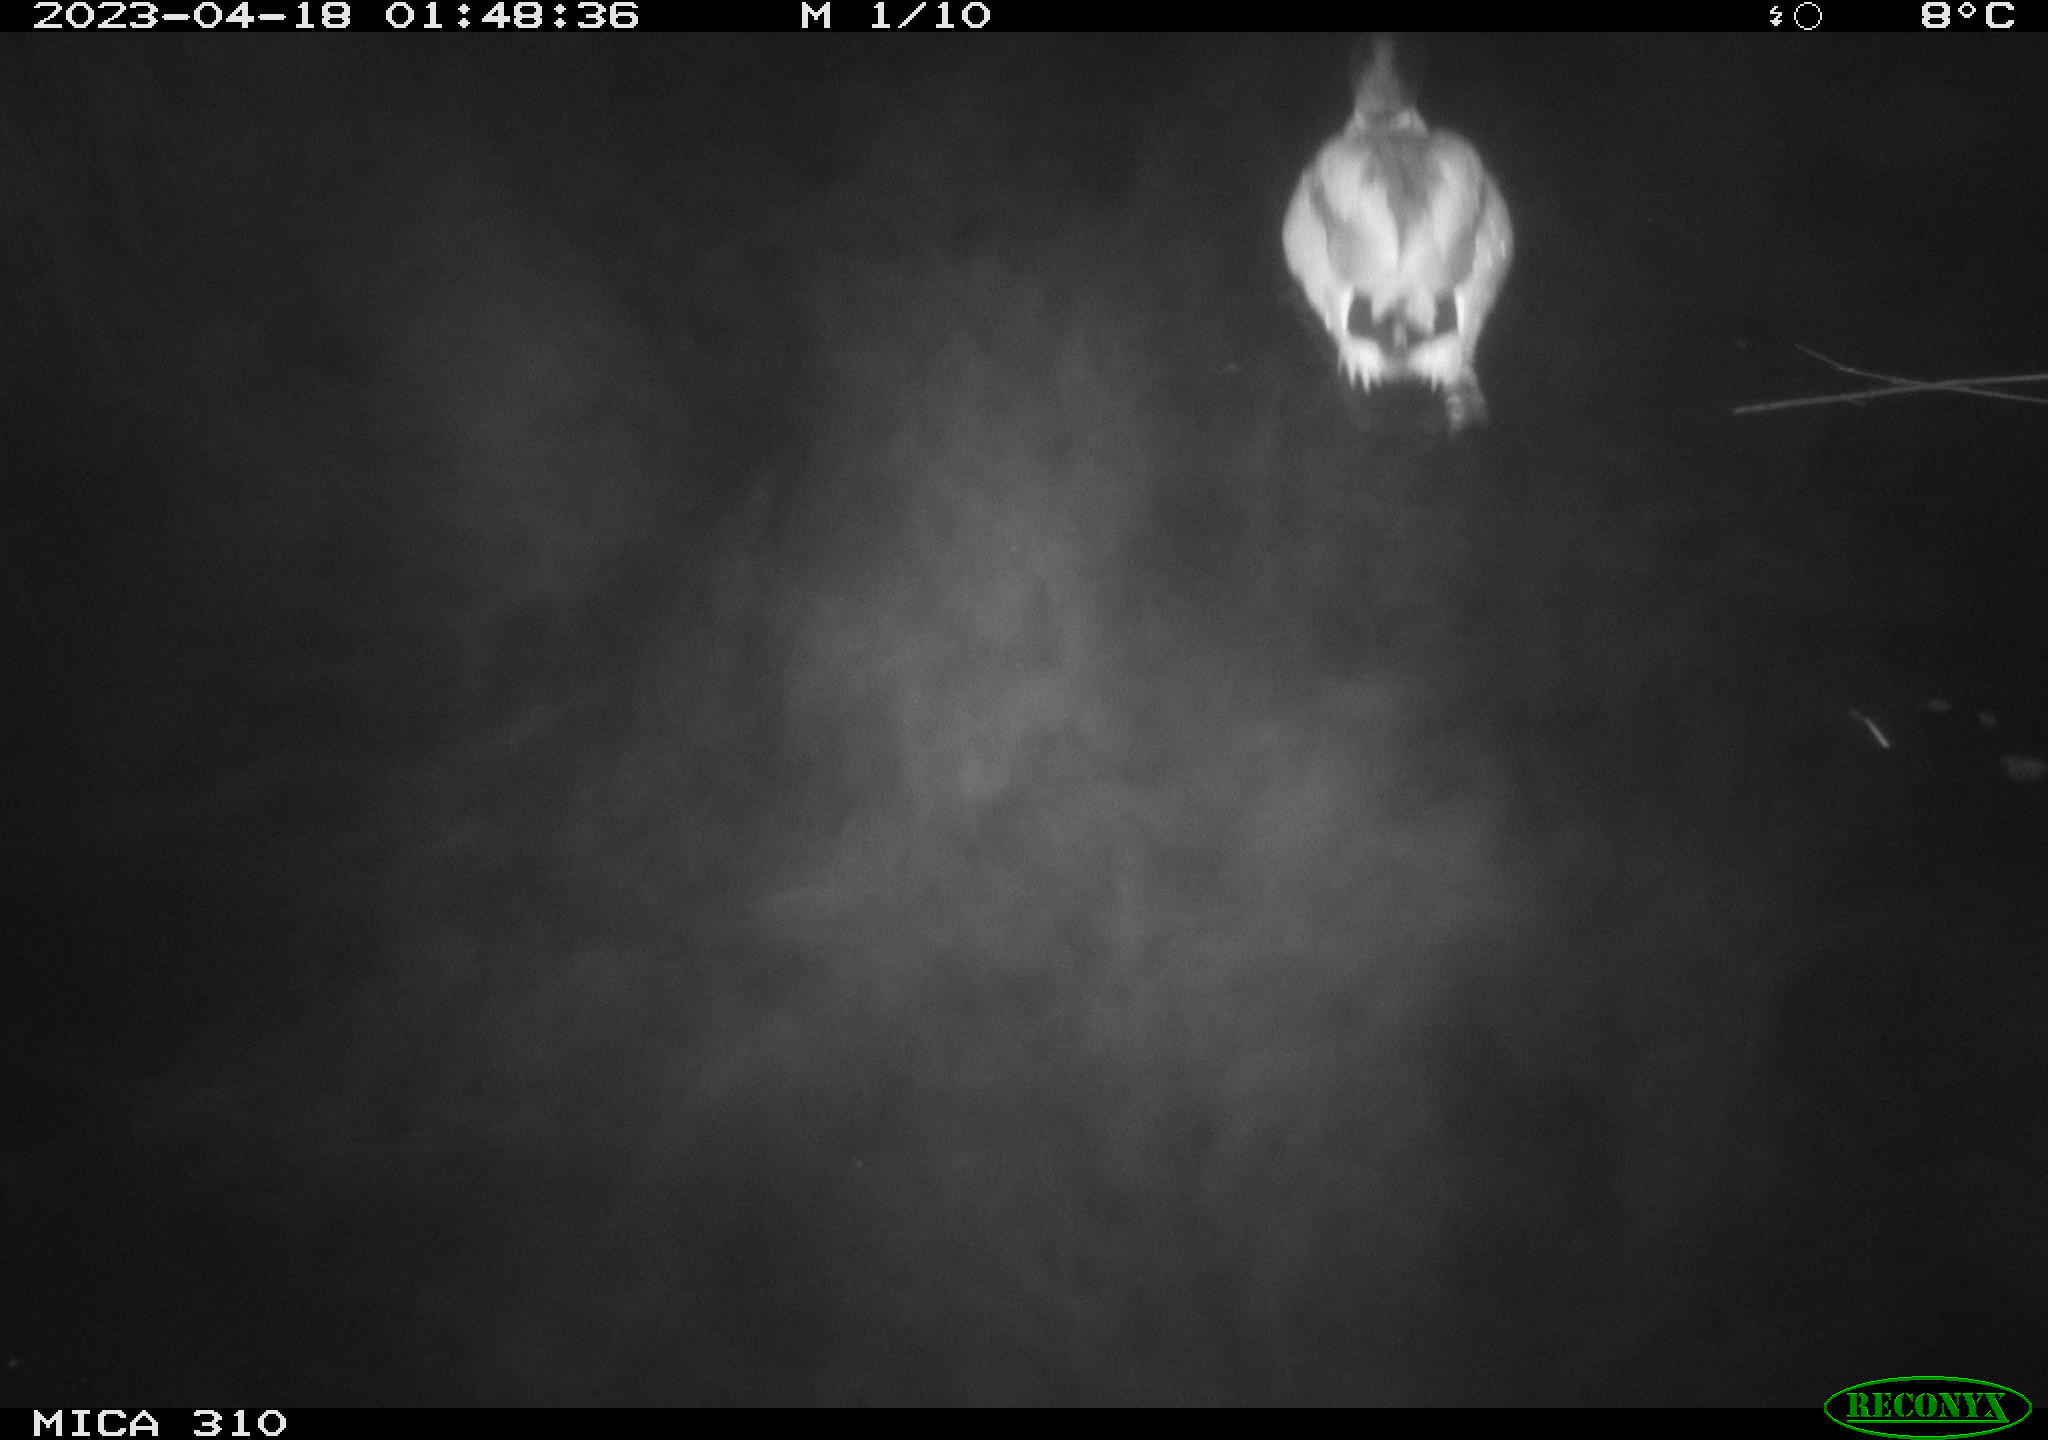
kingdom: Animalia
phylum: Chordata
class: Aves
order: Anseriformes
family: Anatidae
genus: Anas
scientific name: Anas
